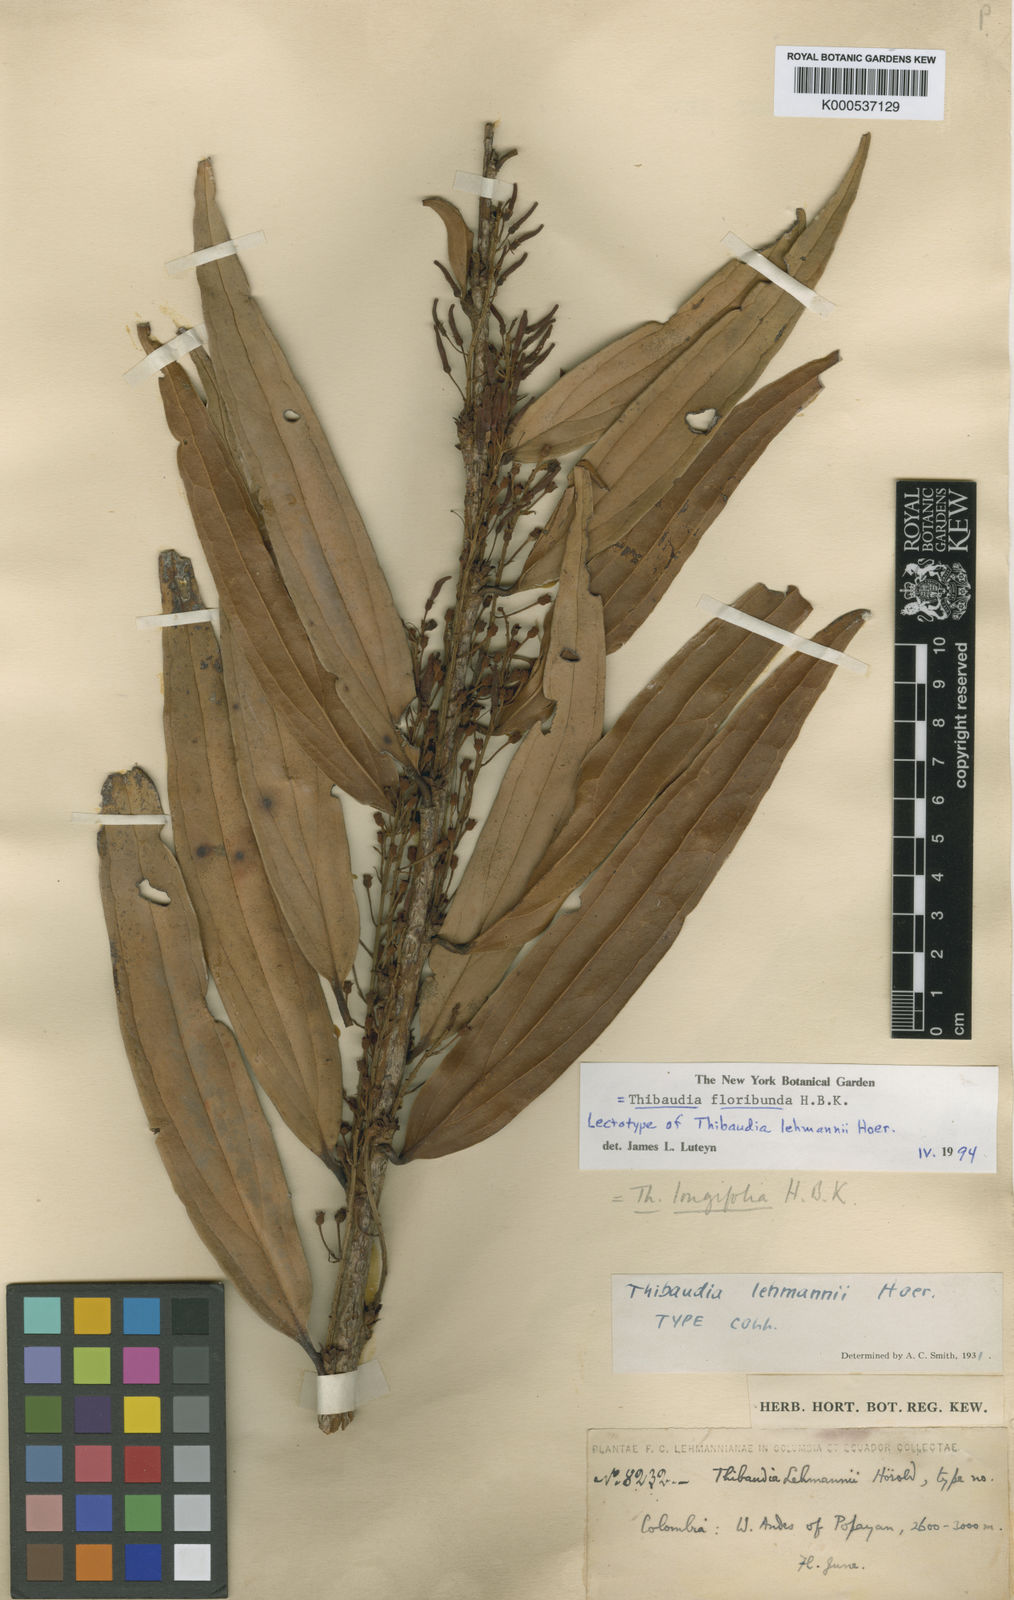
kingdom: Plantae
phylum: Tracheophyta
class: Magnoliopsida
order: Ericales
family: Ericaceae
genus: Thibaudia
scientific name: Thibaudia floribunda
